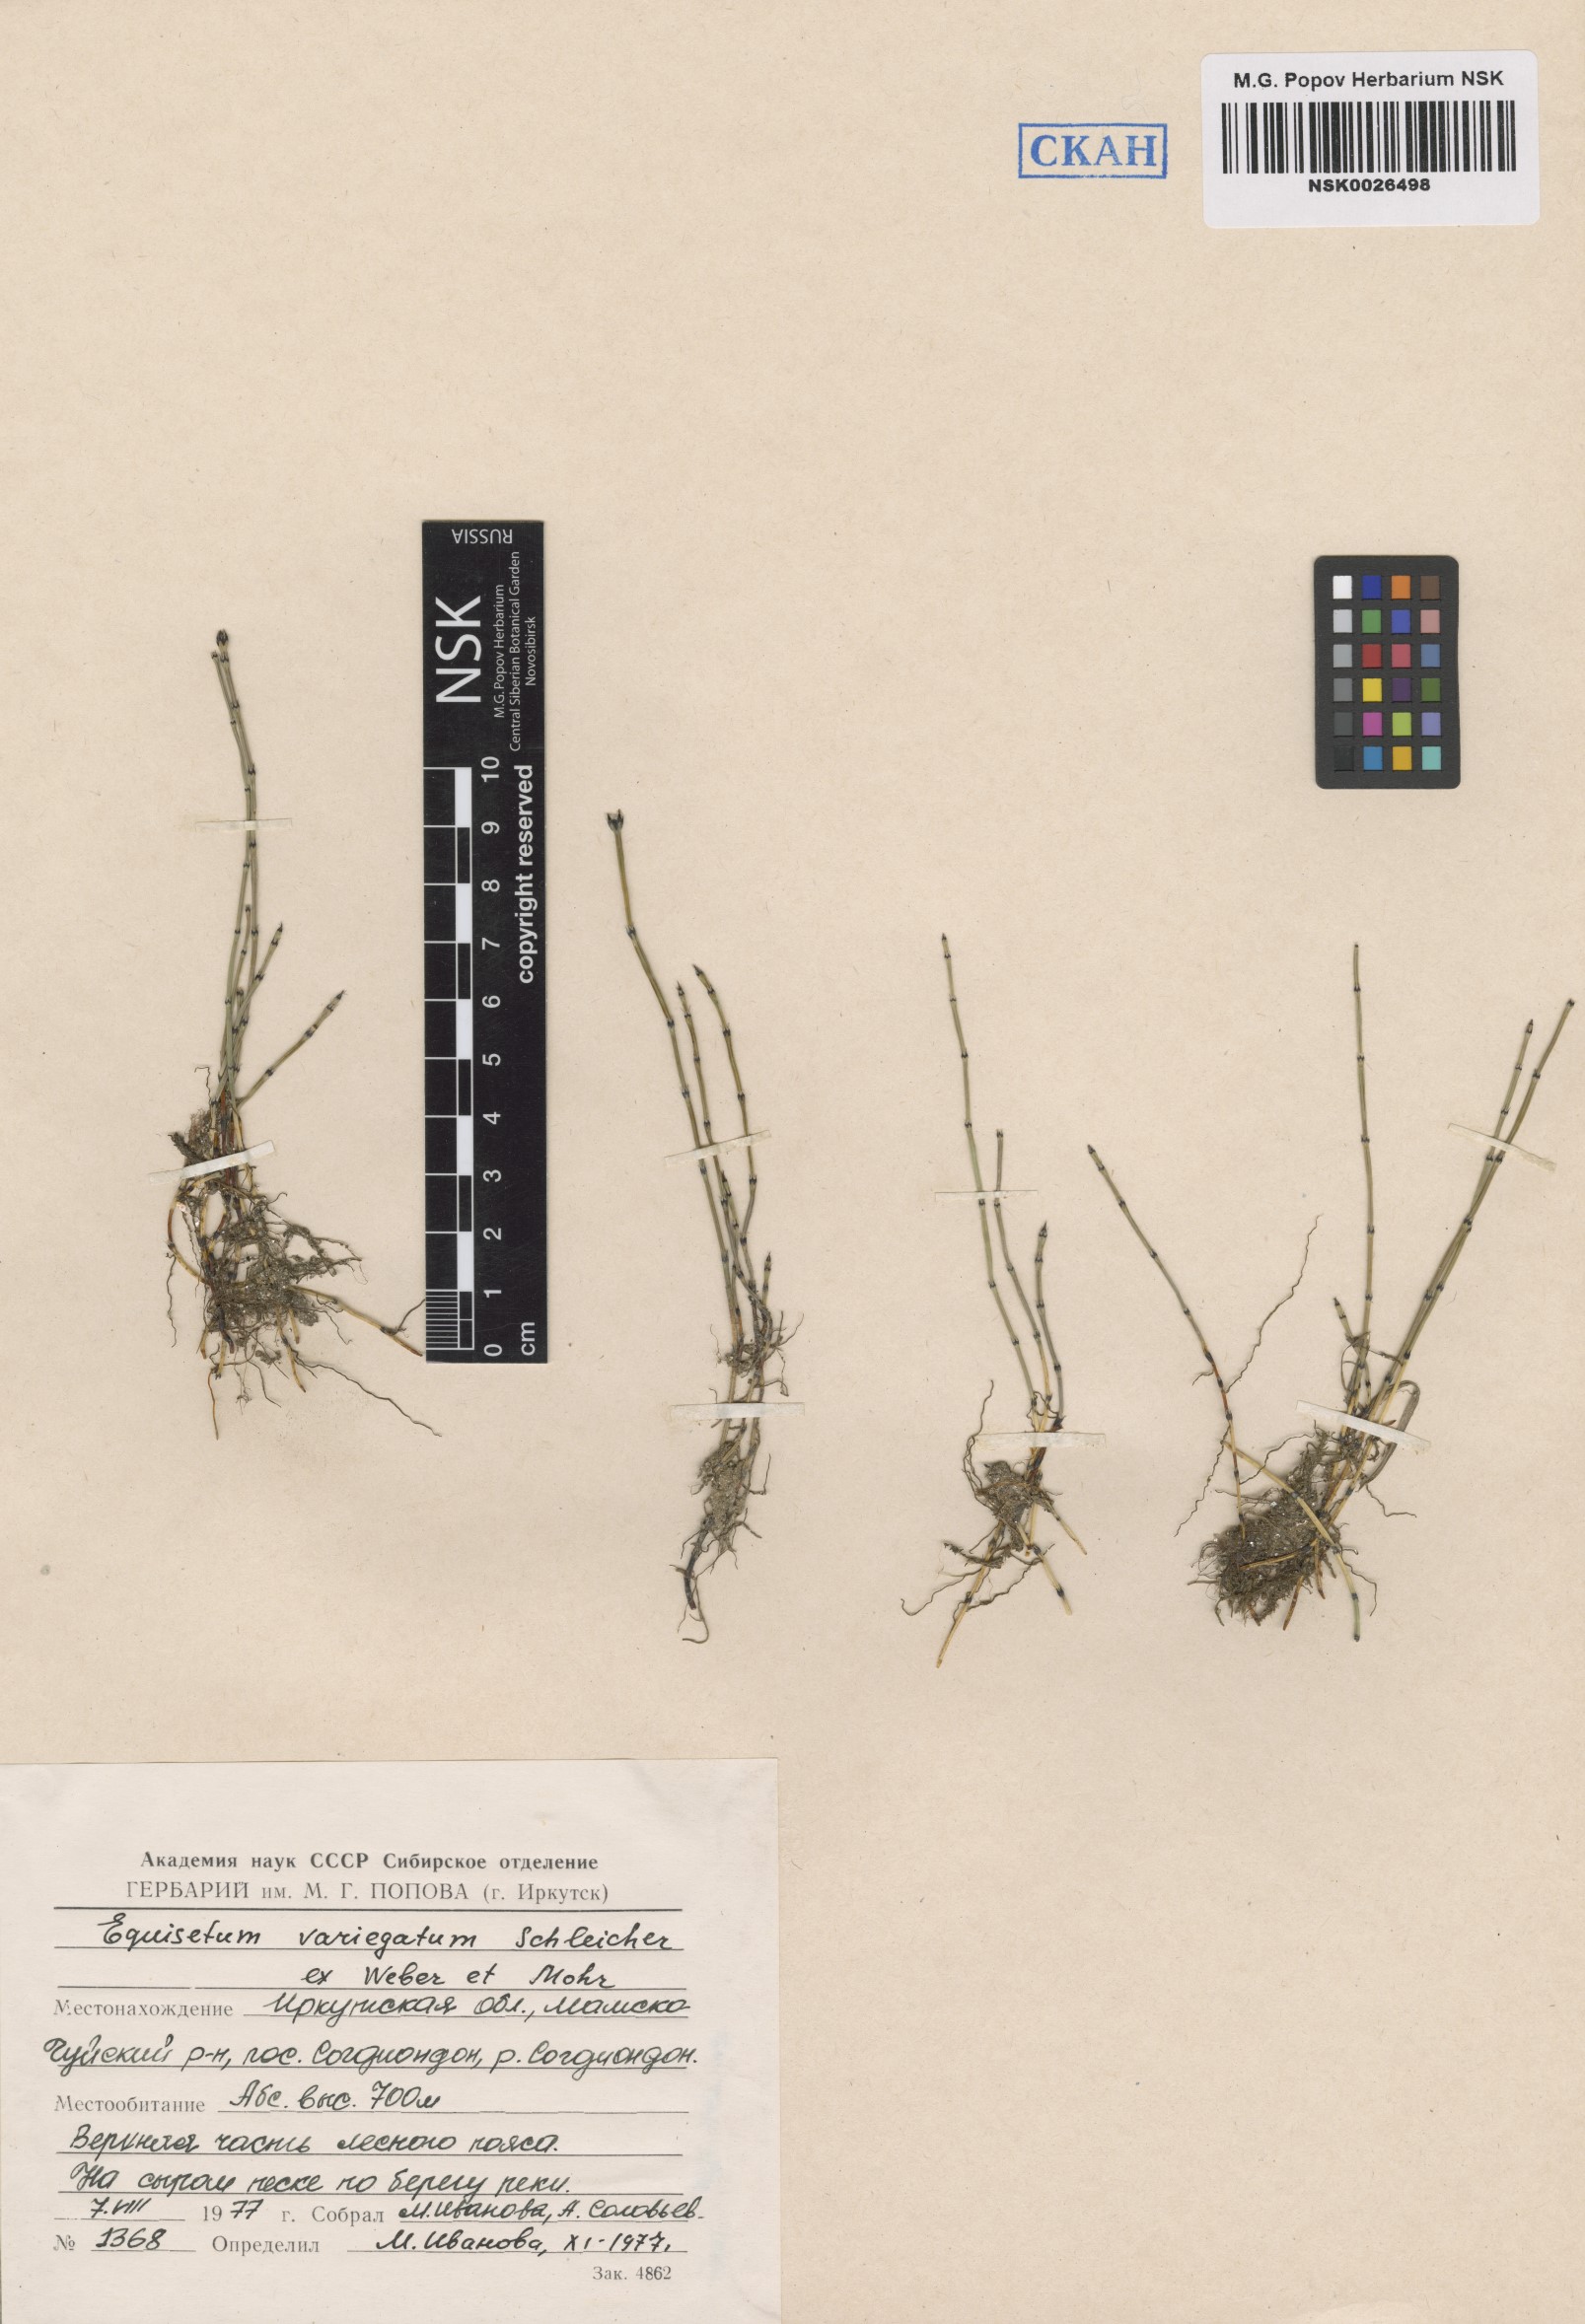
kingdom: Plantae
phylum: Tracheophyta
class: Polypodiopsida
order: Equisetales
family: Equisetaceae
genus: Equisetum
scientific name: Equisetum variegatum
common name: Variegated horsetail
